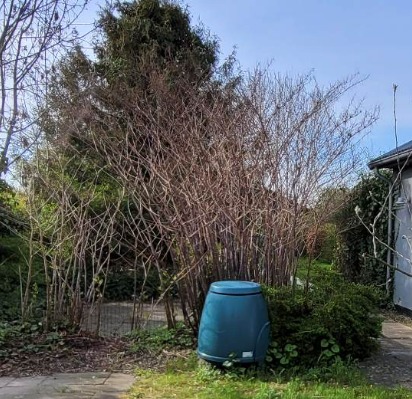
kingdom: Plantae
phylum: Tracheophyta
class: Magnoliopsida
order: Caryophyllales
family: Polygonaceae
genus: Reynoutria
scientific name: Reynoutria
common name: Pileurt (Reynoutria-slægten)
